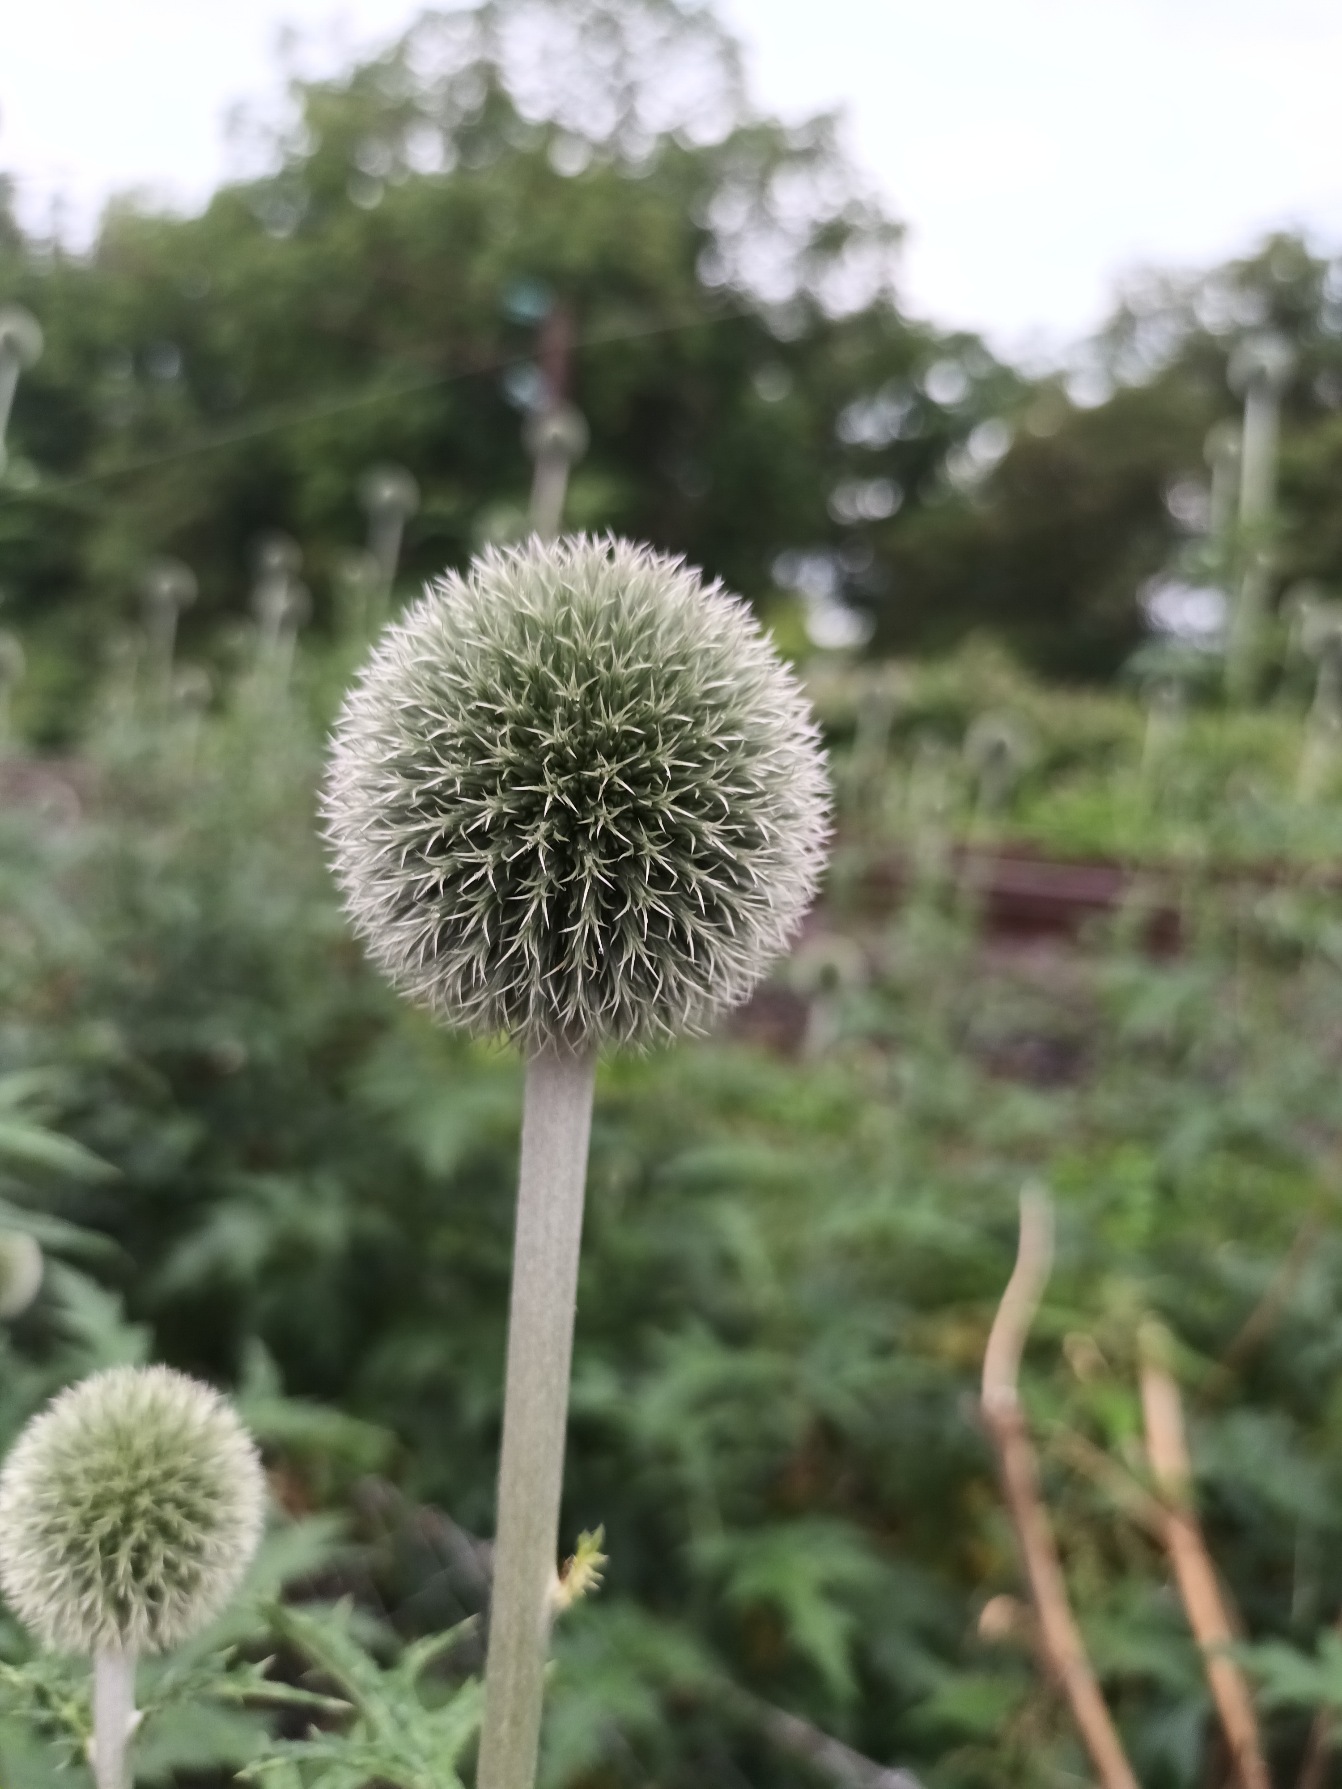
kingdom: Plantae
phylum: Tracheophyta
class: Magnoliopsida
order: Asterales
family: Asteraceae
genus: Echinops
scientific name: Echinops exaltatus
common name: Høj tidselkugle
